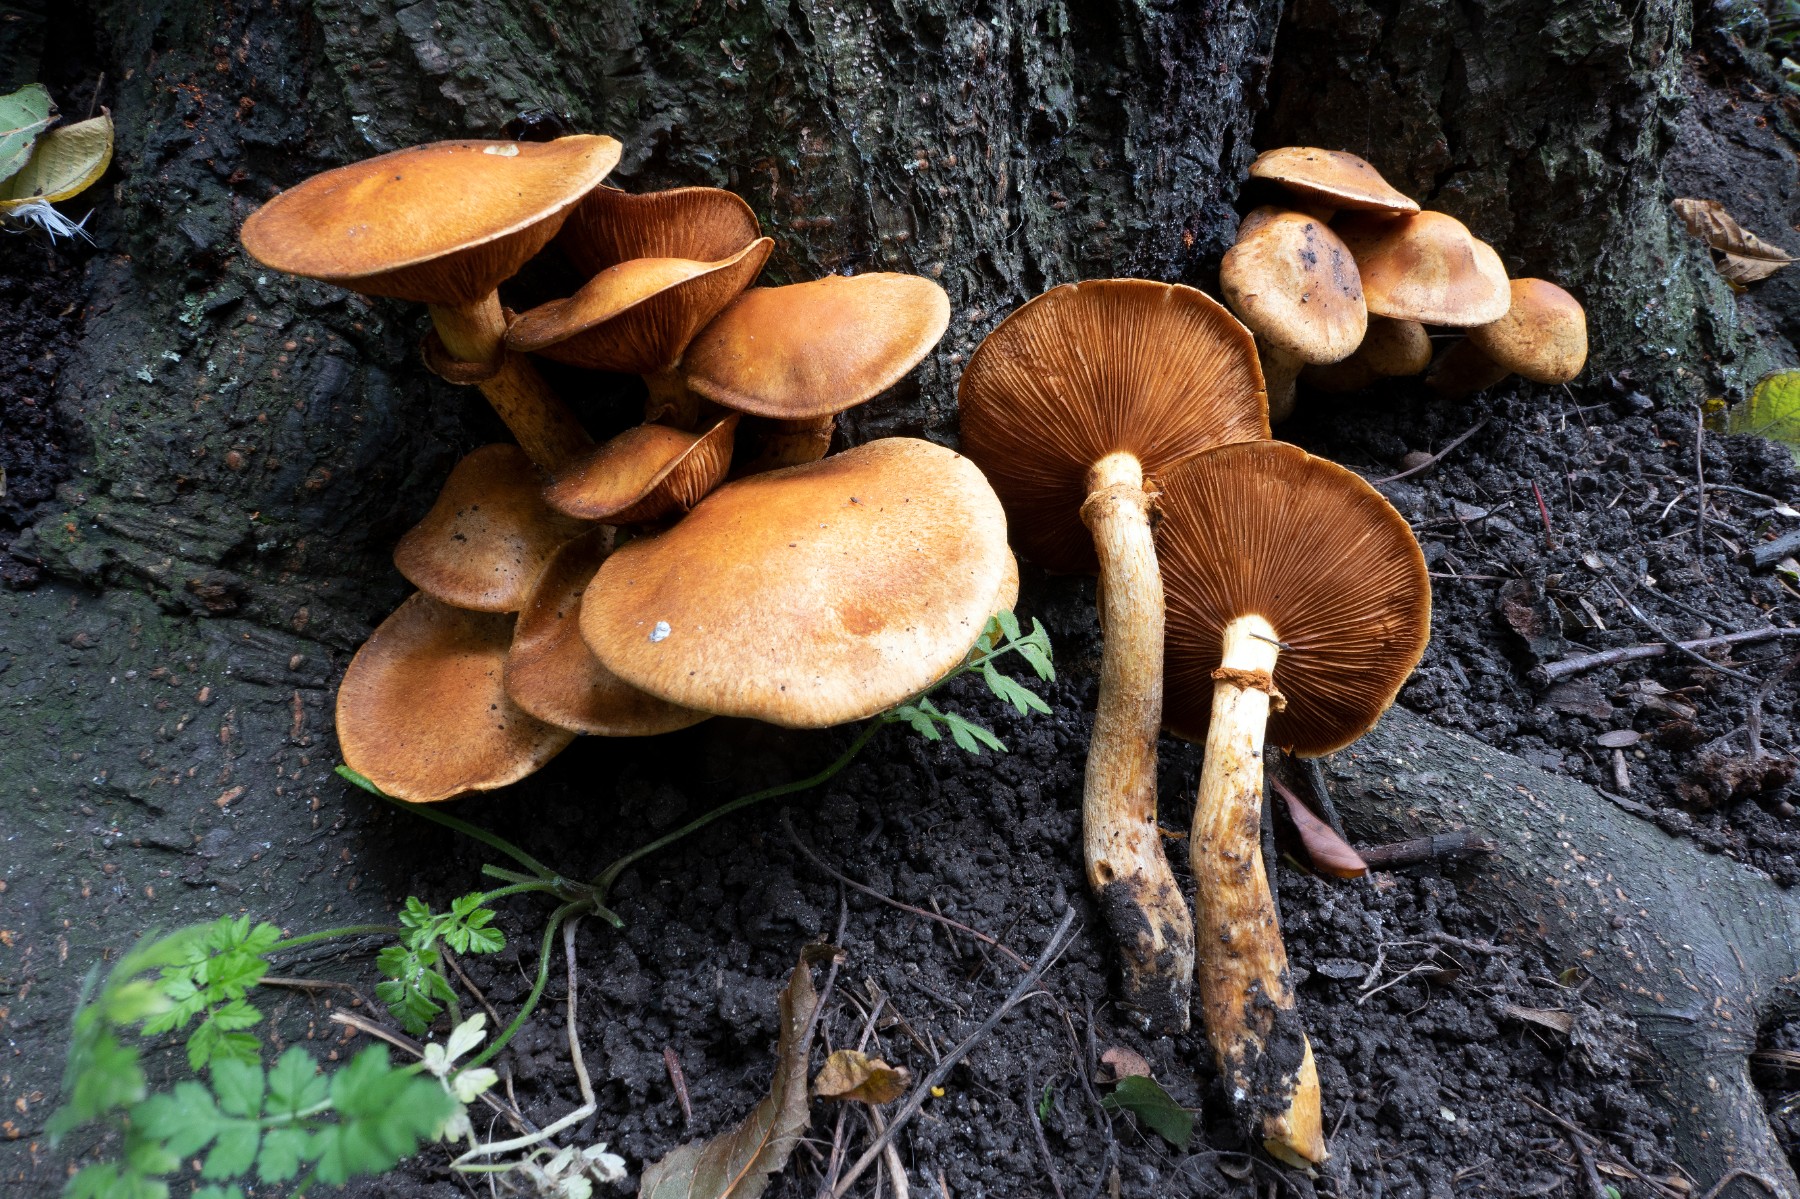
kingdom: Fungi
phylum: Basidiomycota
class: Agaricomycetes
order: Agaricales
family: Hymenogastraceae
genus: Gymnopilus
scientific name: Gymnopilus spectabilis
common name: fibret flammehat
